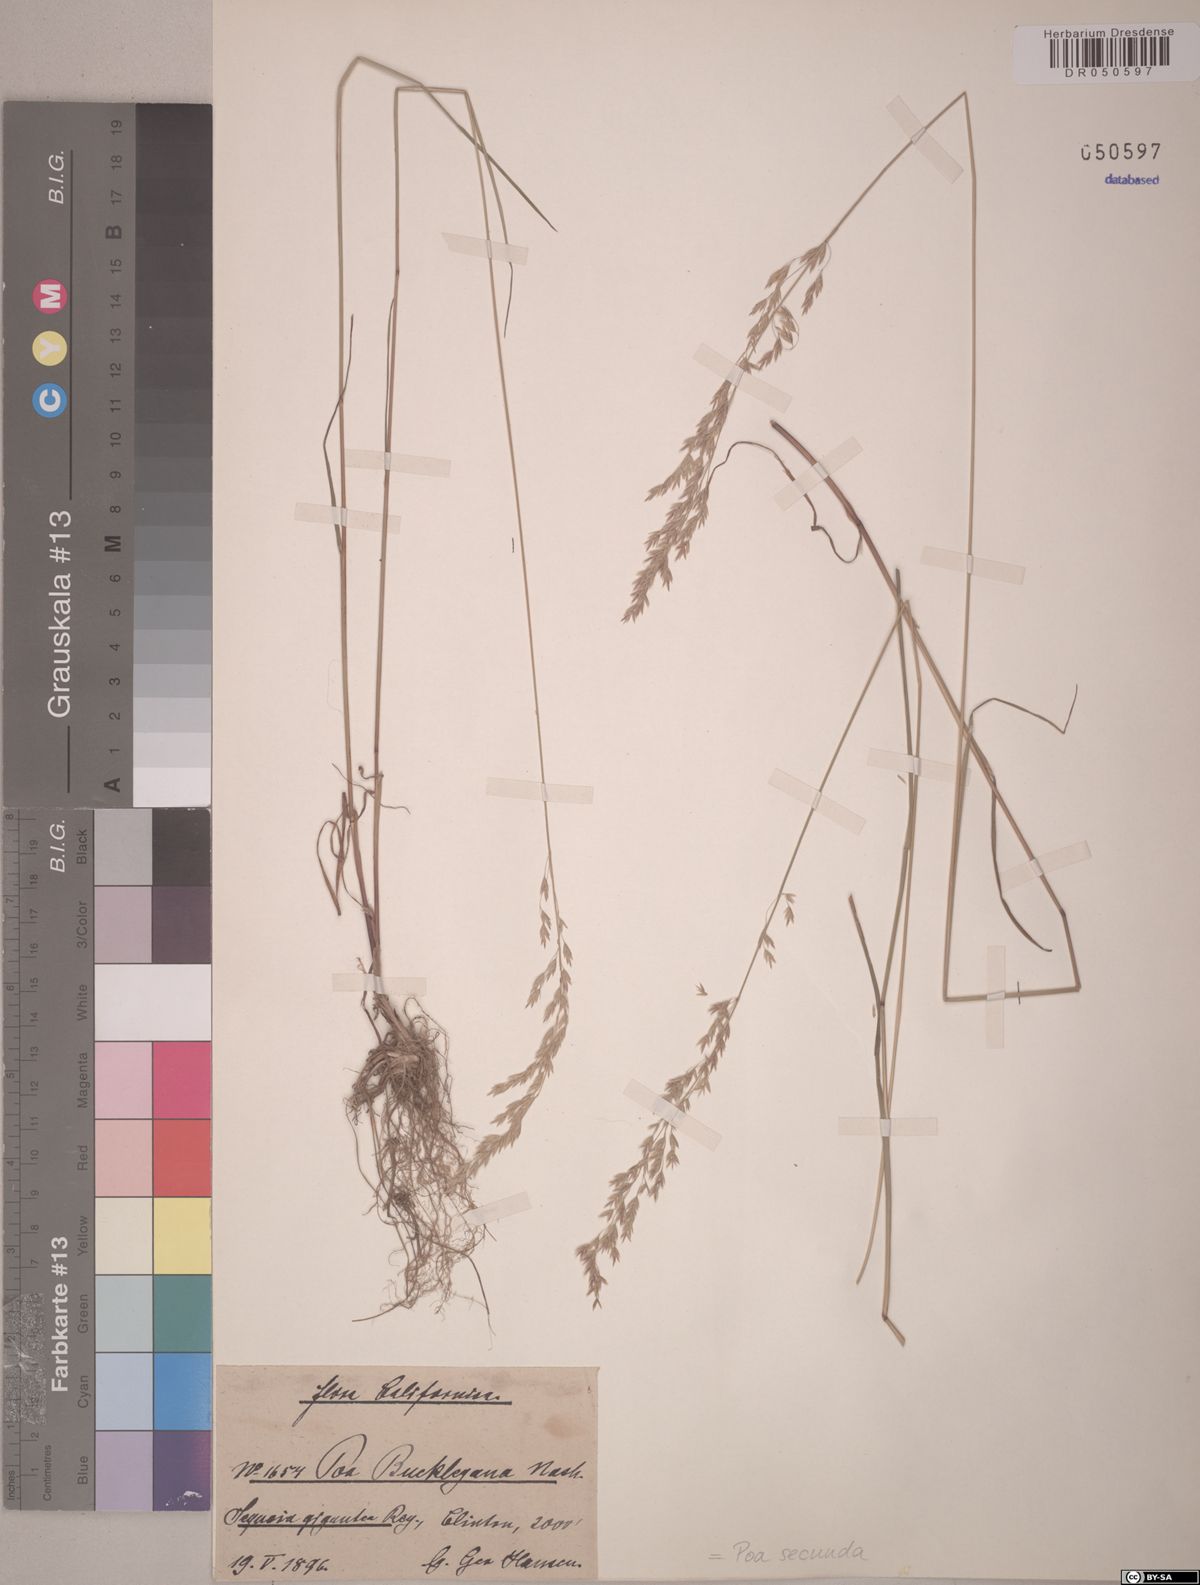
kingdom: Plantae
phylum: Tracheophyta
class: Liliopsida
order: Poales
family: Poaceae
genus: Poa
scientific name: Poa secunda
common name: Sandberg bluegrass
